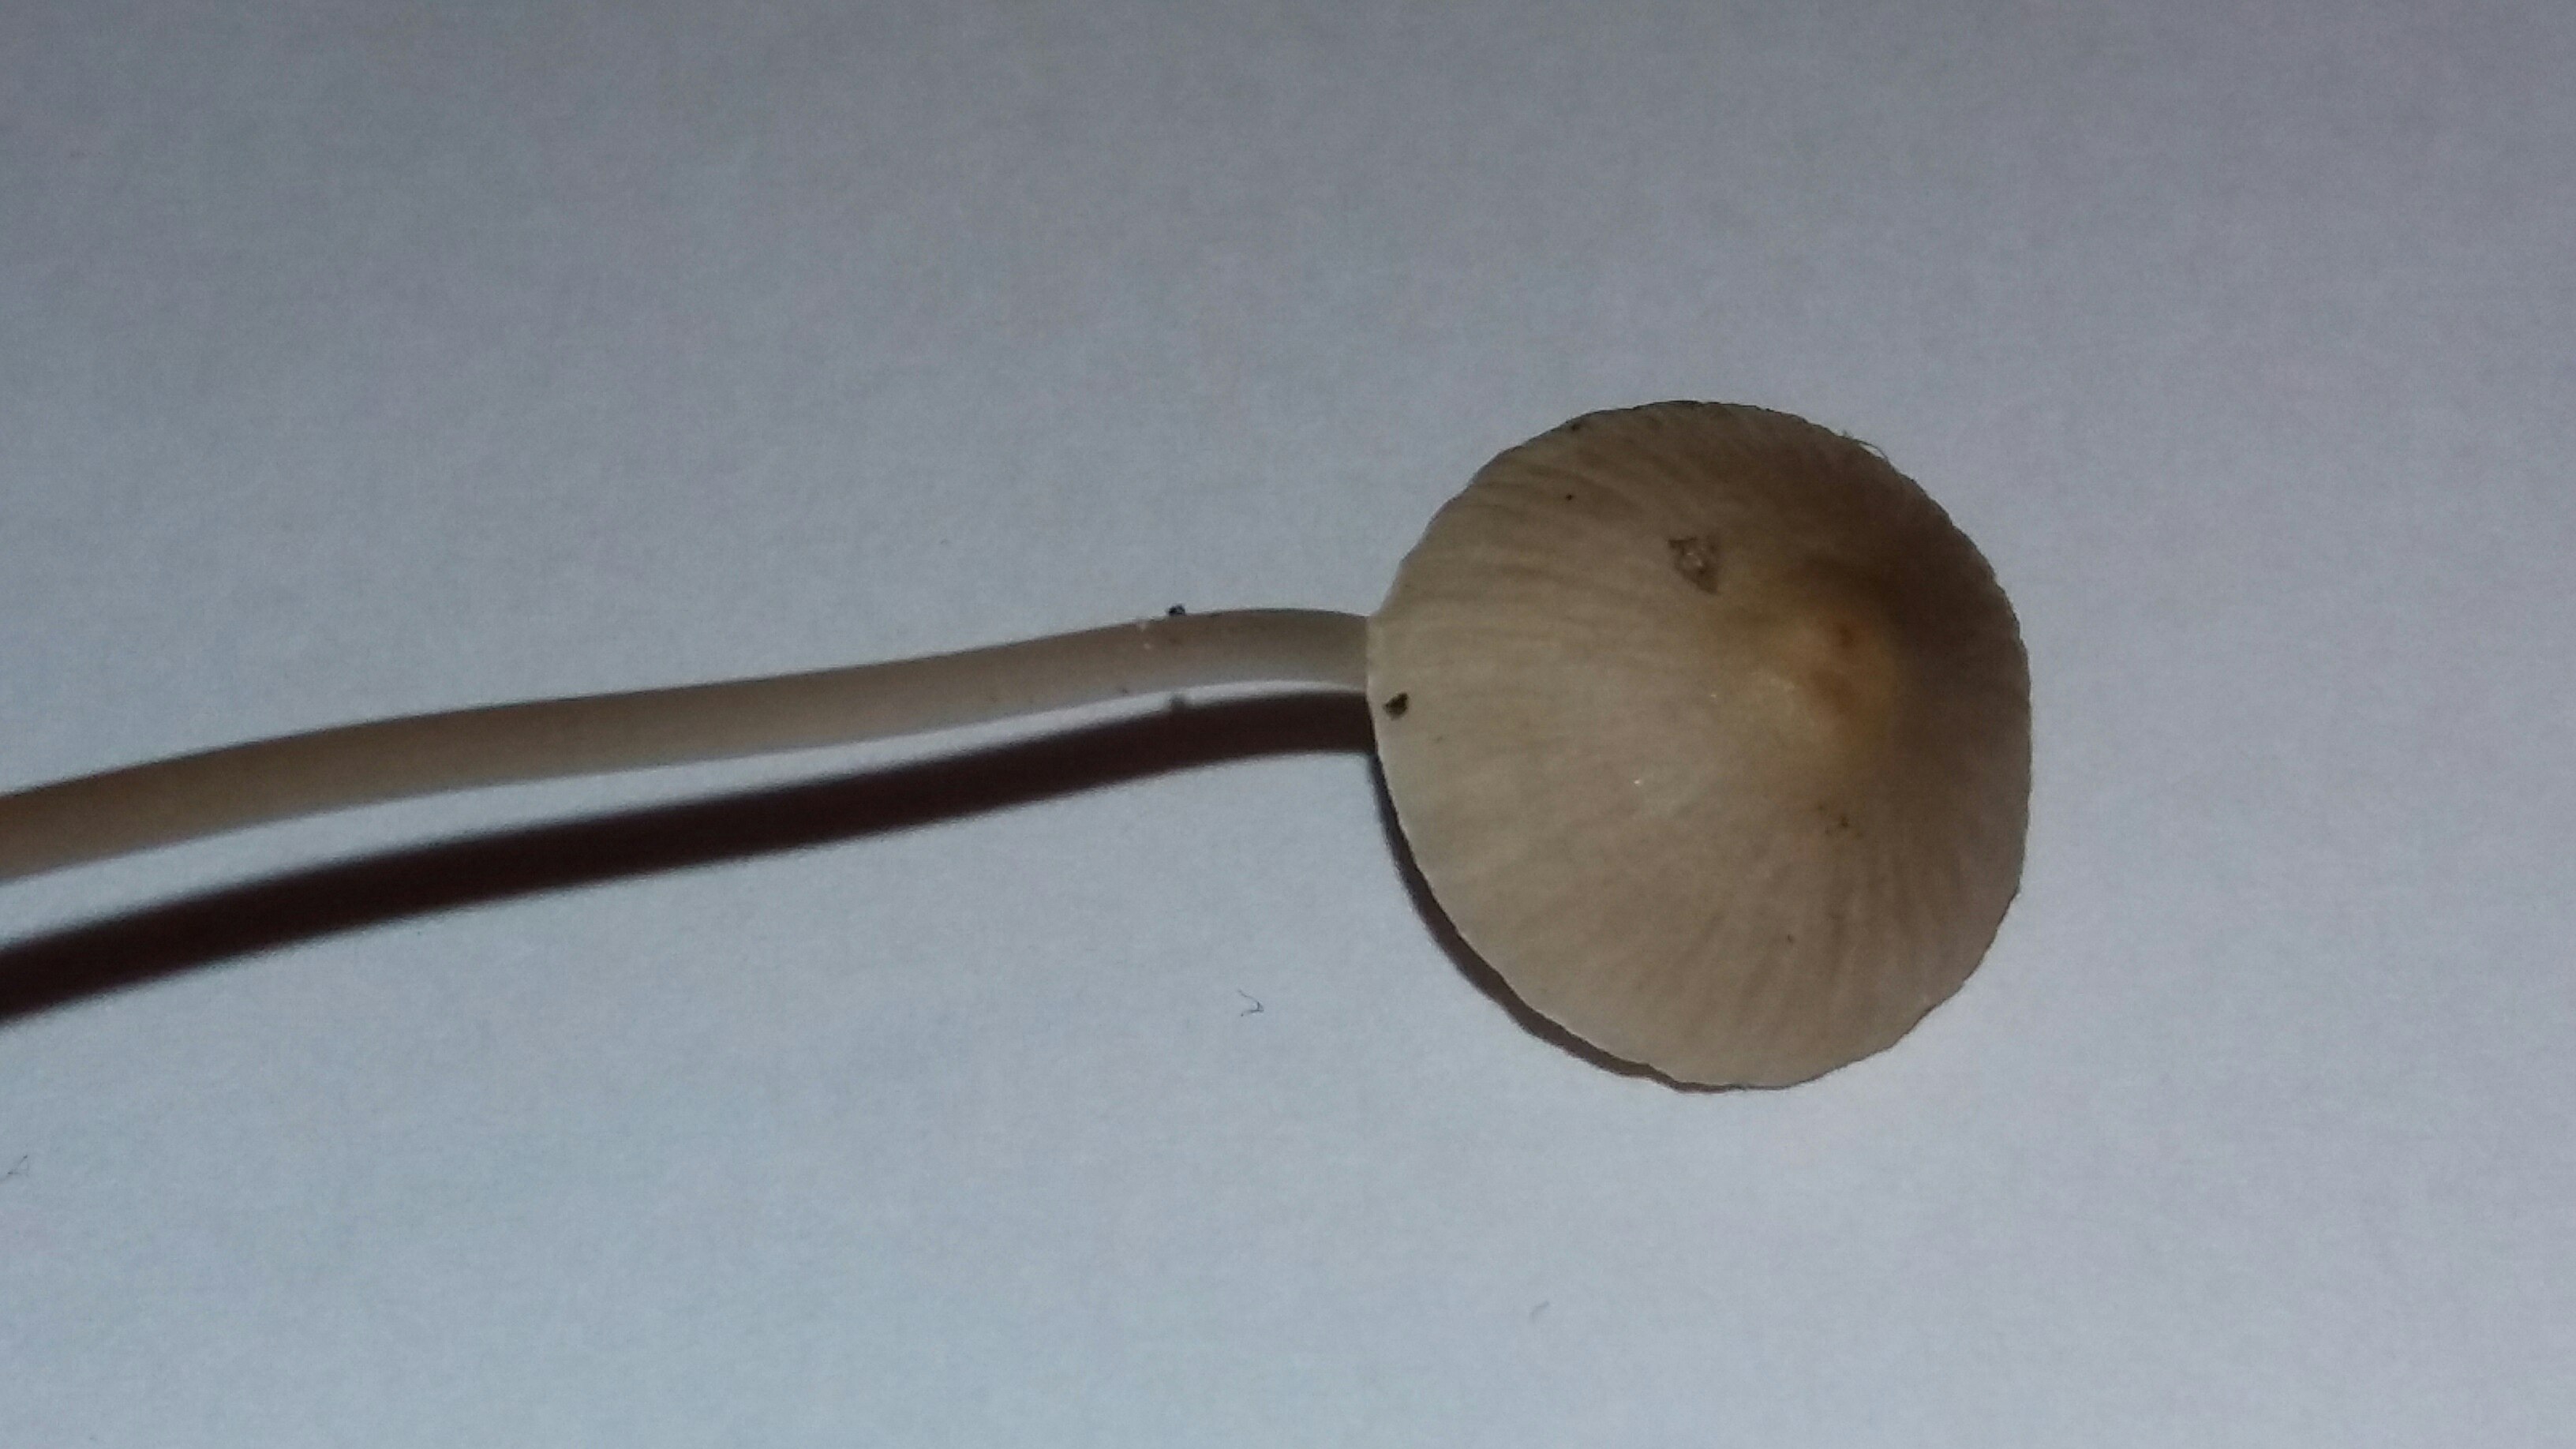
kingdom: Fungi
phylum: Basidiomycota
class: Agaricomycetes
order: Agaricales
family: Mycenaceae
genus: Mycena
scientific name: Mycena vitilis
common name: blankstokket huesvamp
